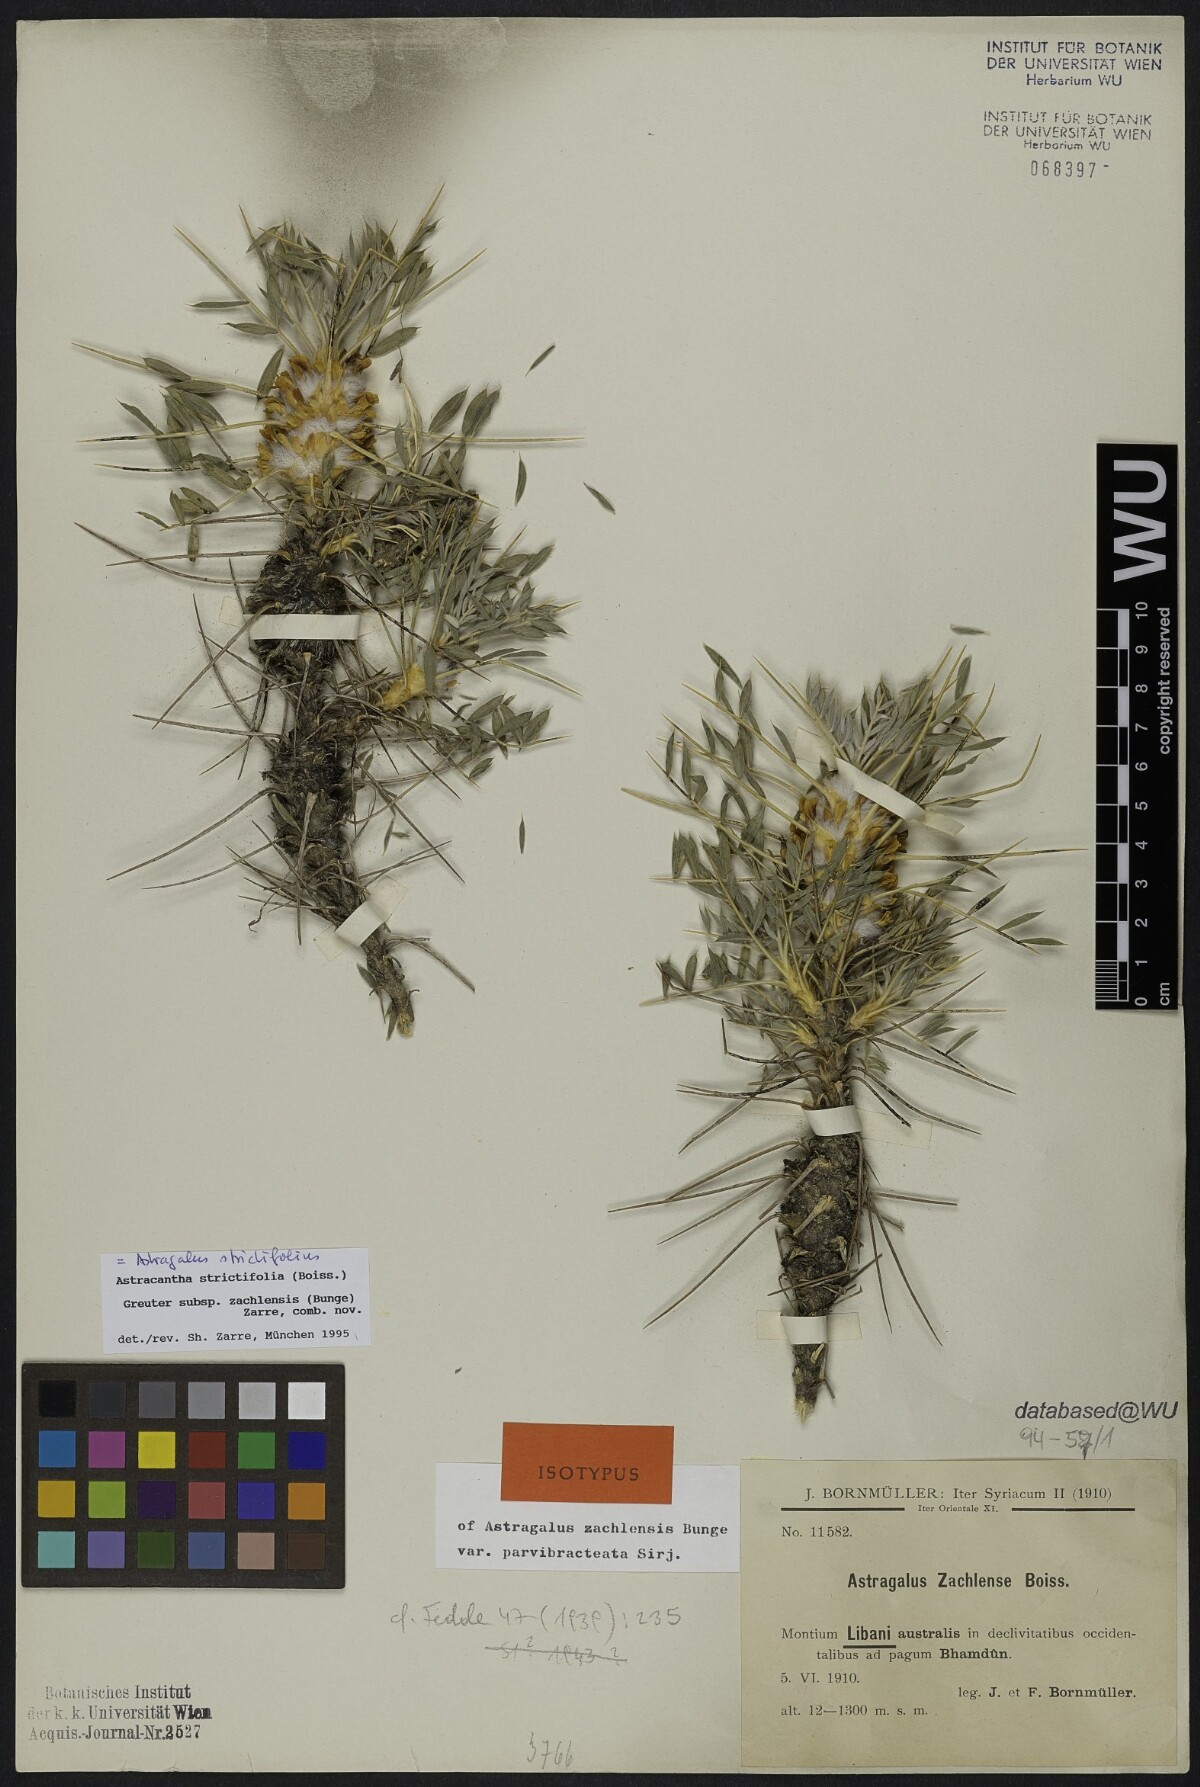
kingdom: Plantae
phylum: Tracheophyta
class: Magnoliopsida
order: Fabales
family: Fabaceae
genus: Astragalus
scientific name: Astragalus zachlensis
